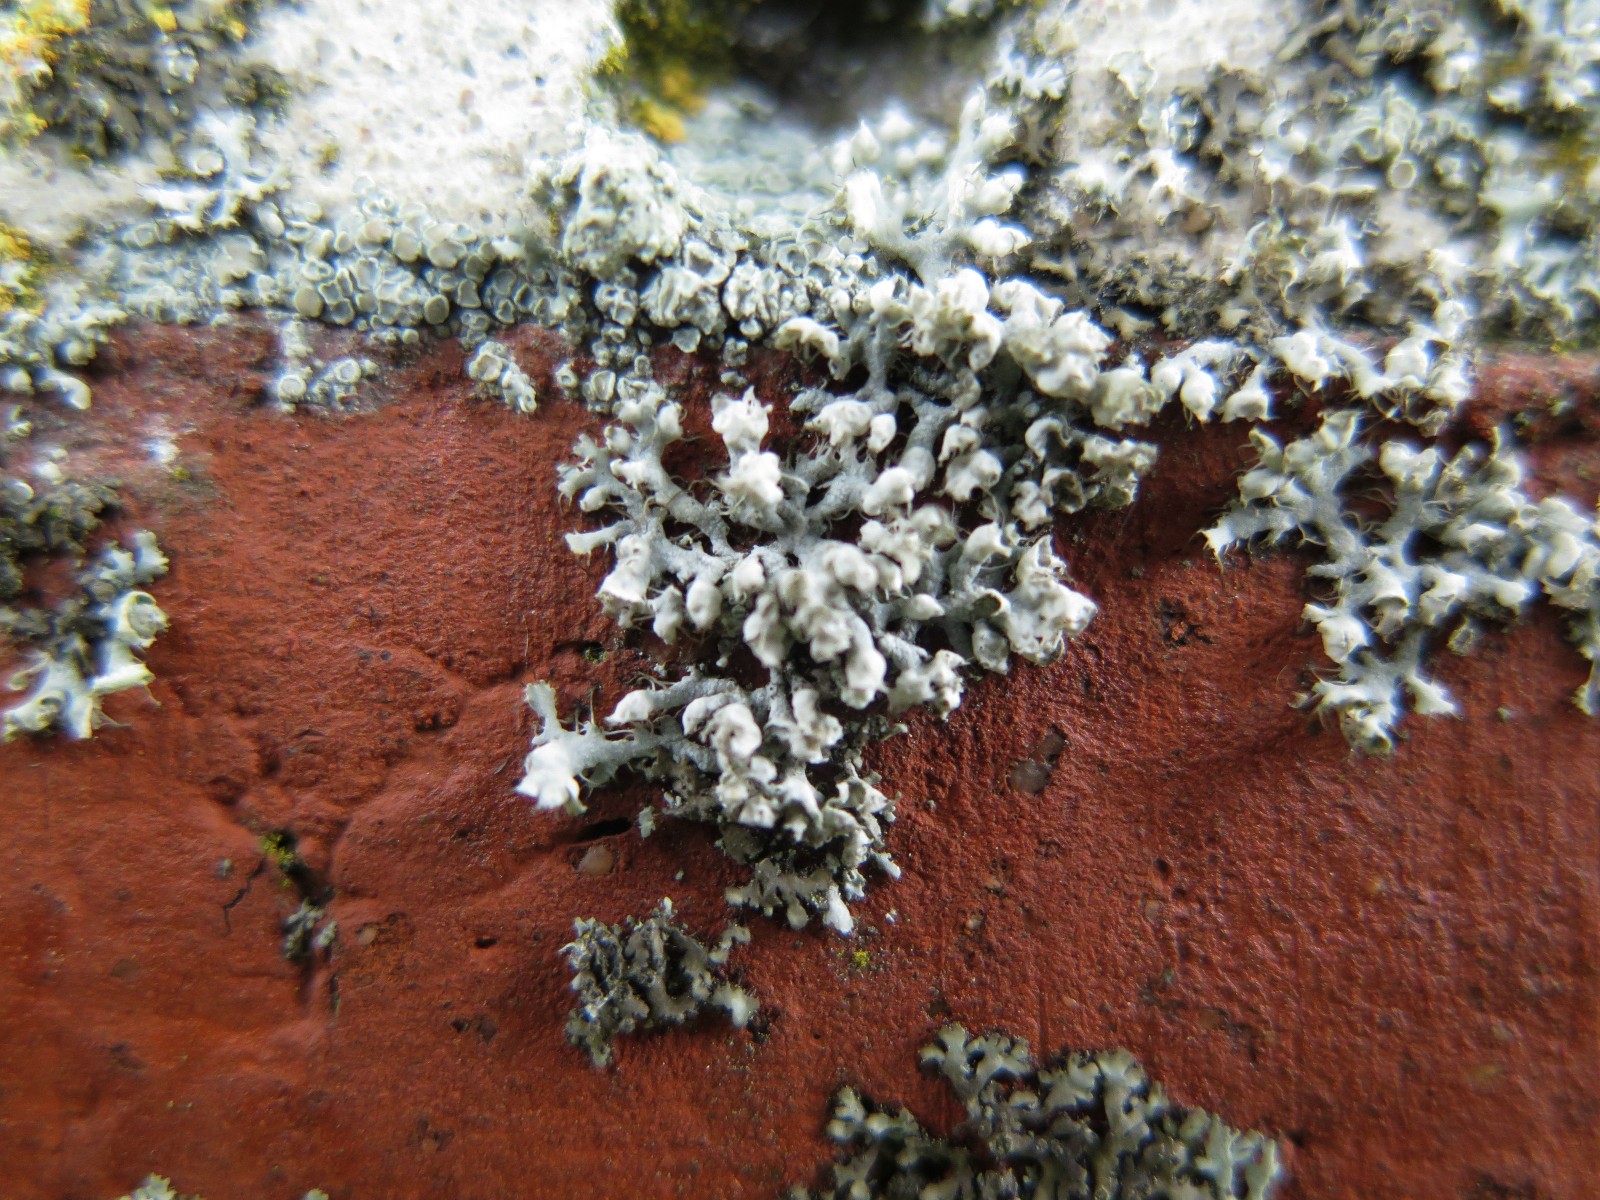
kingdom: Fungi
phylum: Ascomycota
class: Lecanoromycetes
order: Caliciales
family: Physciaceae
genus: Physcia
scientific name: Physcia adscendens
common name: hætte-rosetlav
